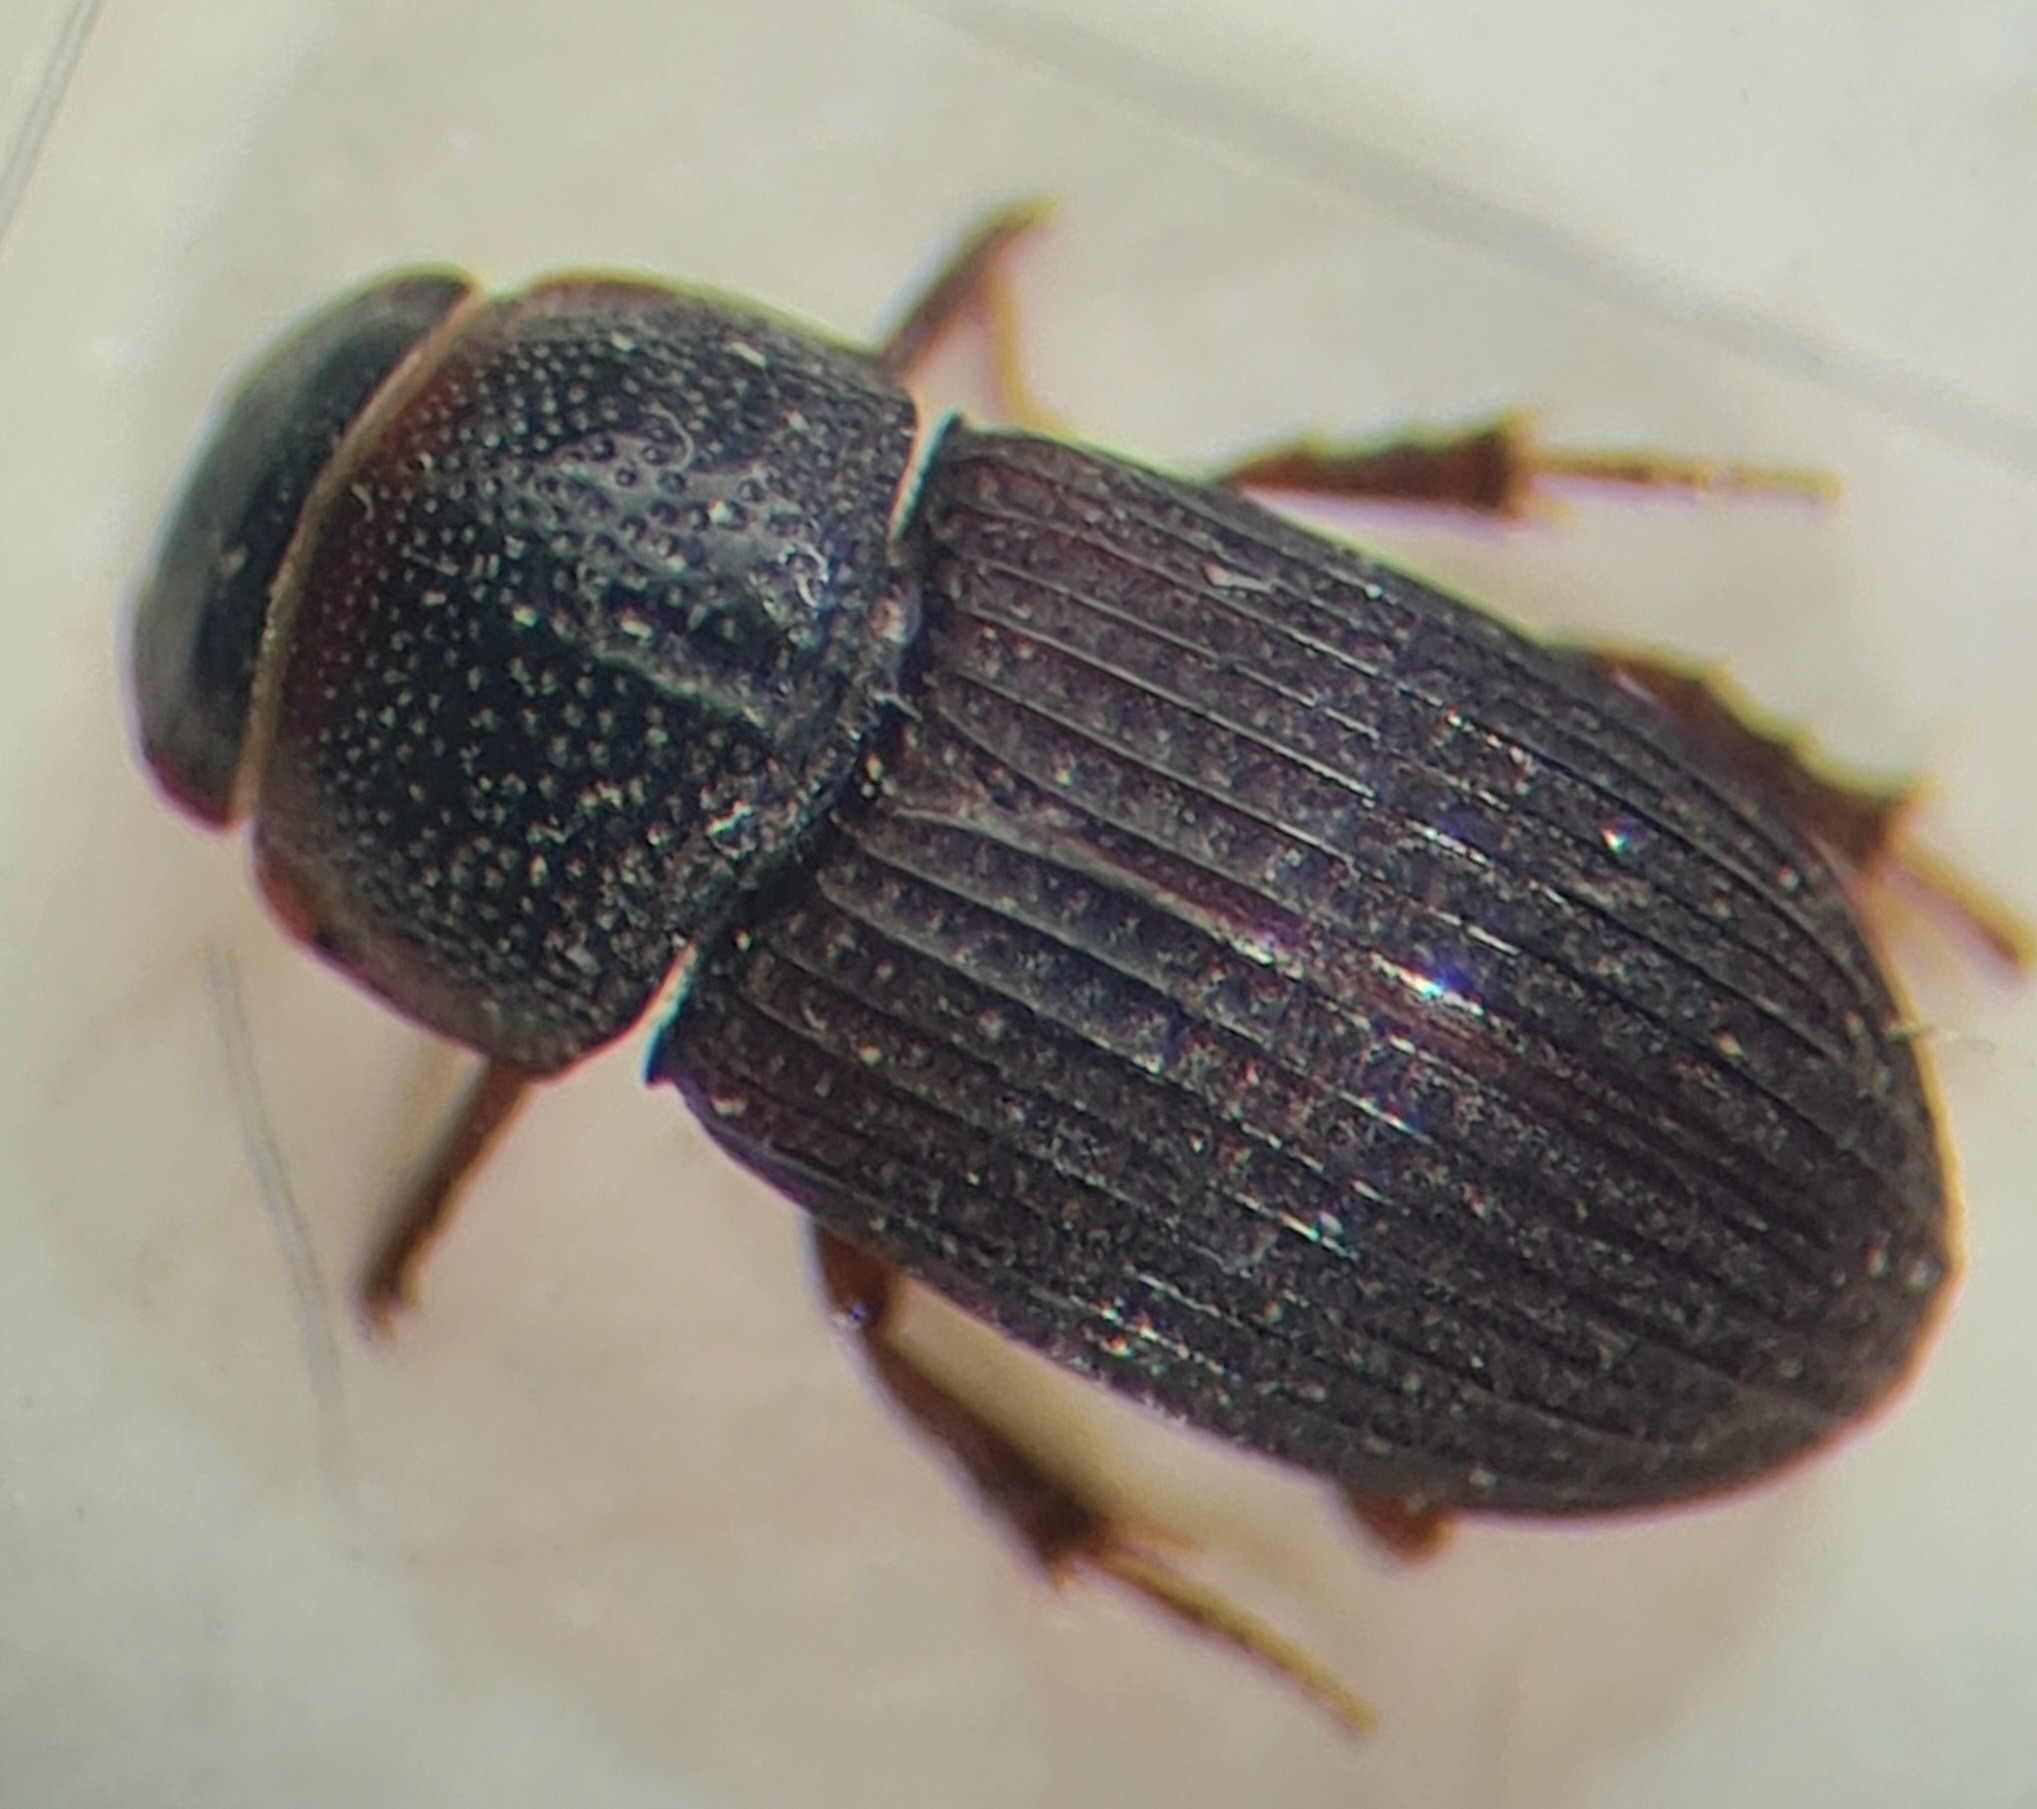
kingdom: Animalia
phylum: Arthropoda
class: Insecta
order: Coleoptera
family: Scarabaeidae
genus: Oxyomus
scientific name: Oxyomus sylvestris
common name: Kompostmøgbille
